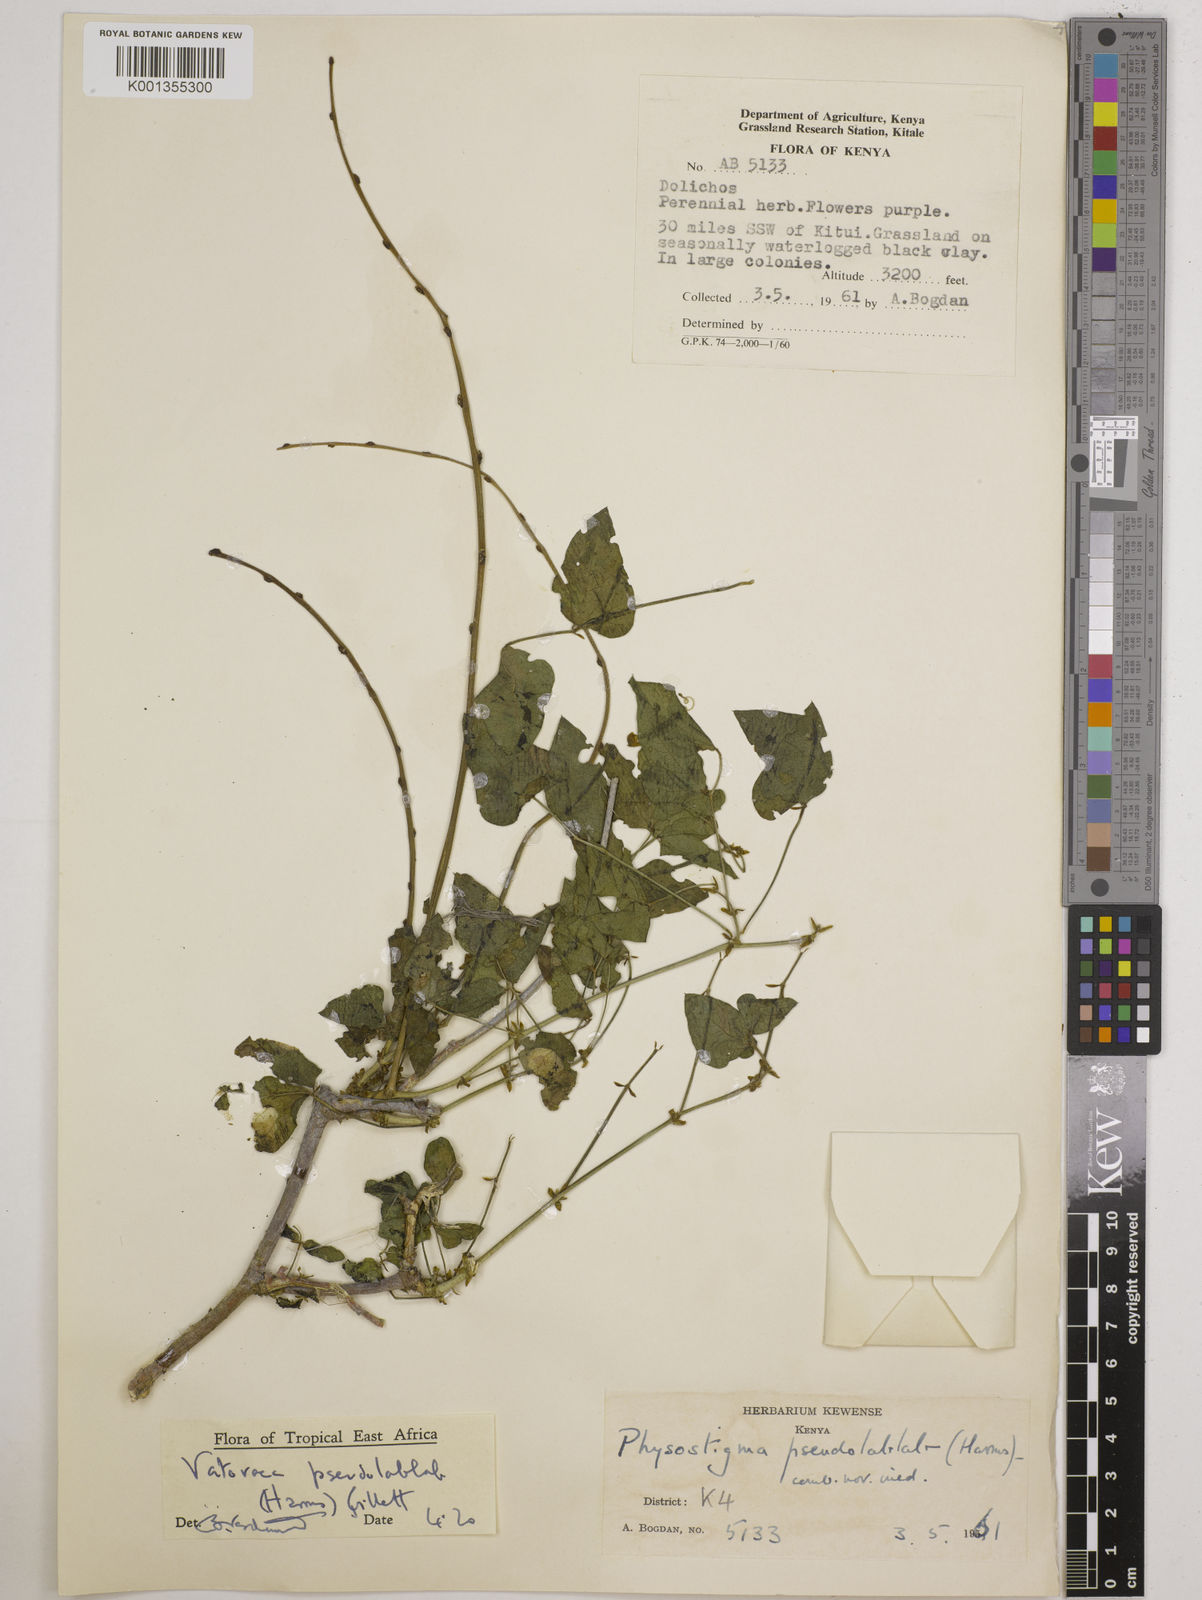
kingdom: Plantae
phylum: Tracheophyta
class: Magnoliopsida
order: Fabales
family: Fabaceae
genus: Vatovaea
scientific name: Vatovaea pseudolablab
